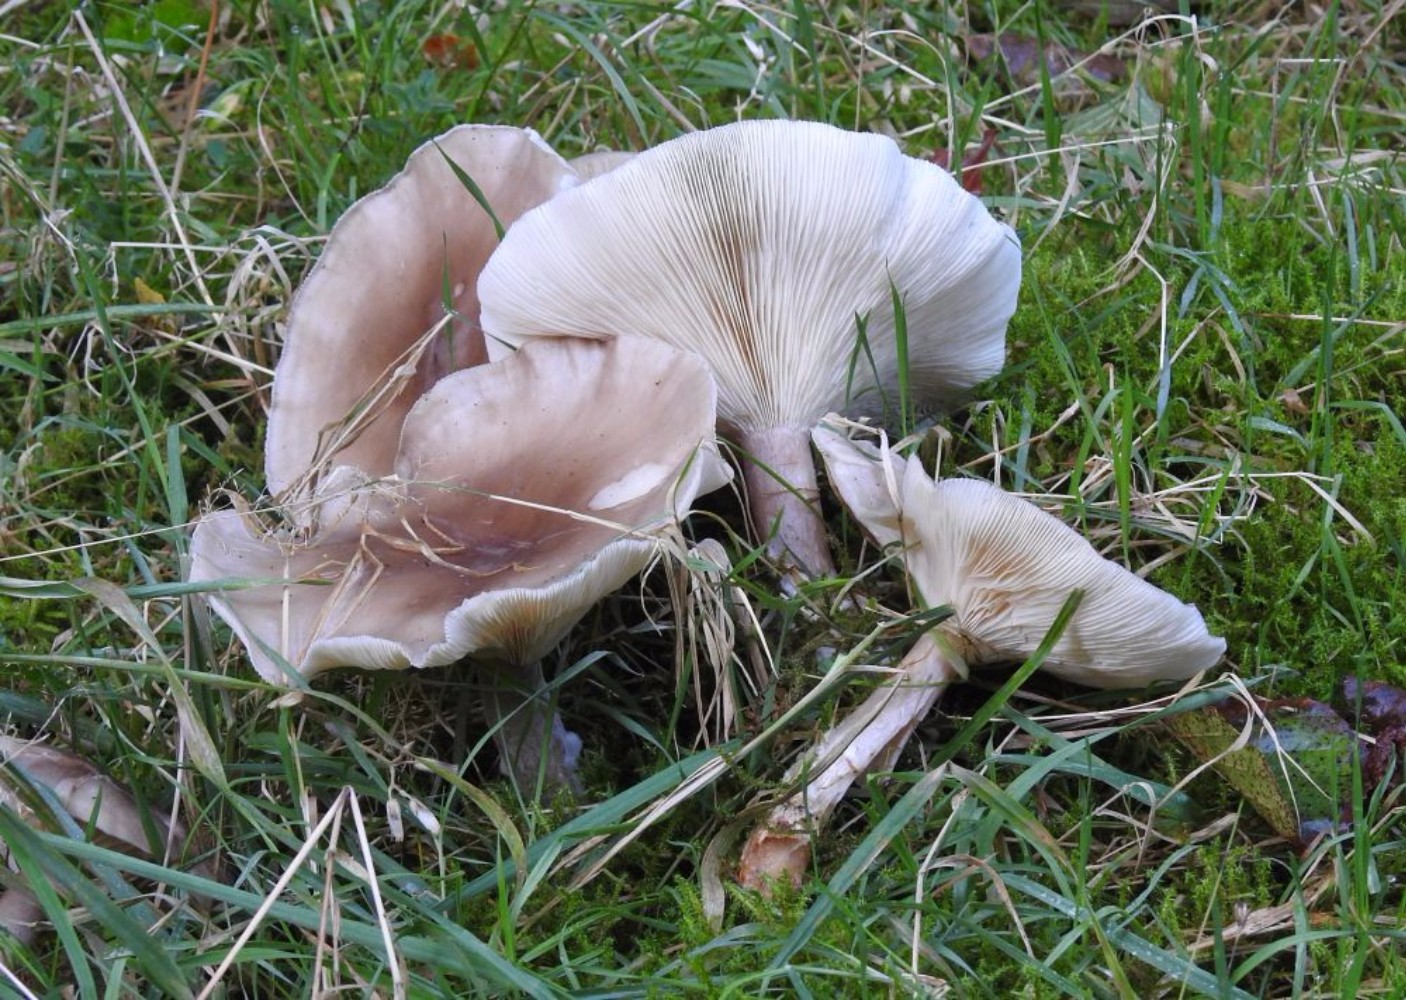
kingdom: Fungi
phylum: Basidiomycota
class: Agaricomycetes
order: Agaricales
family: Tricholomataceae
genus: Clitocybe
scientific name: Clitocybe nebularis
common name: tåge-tragthat
